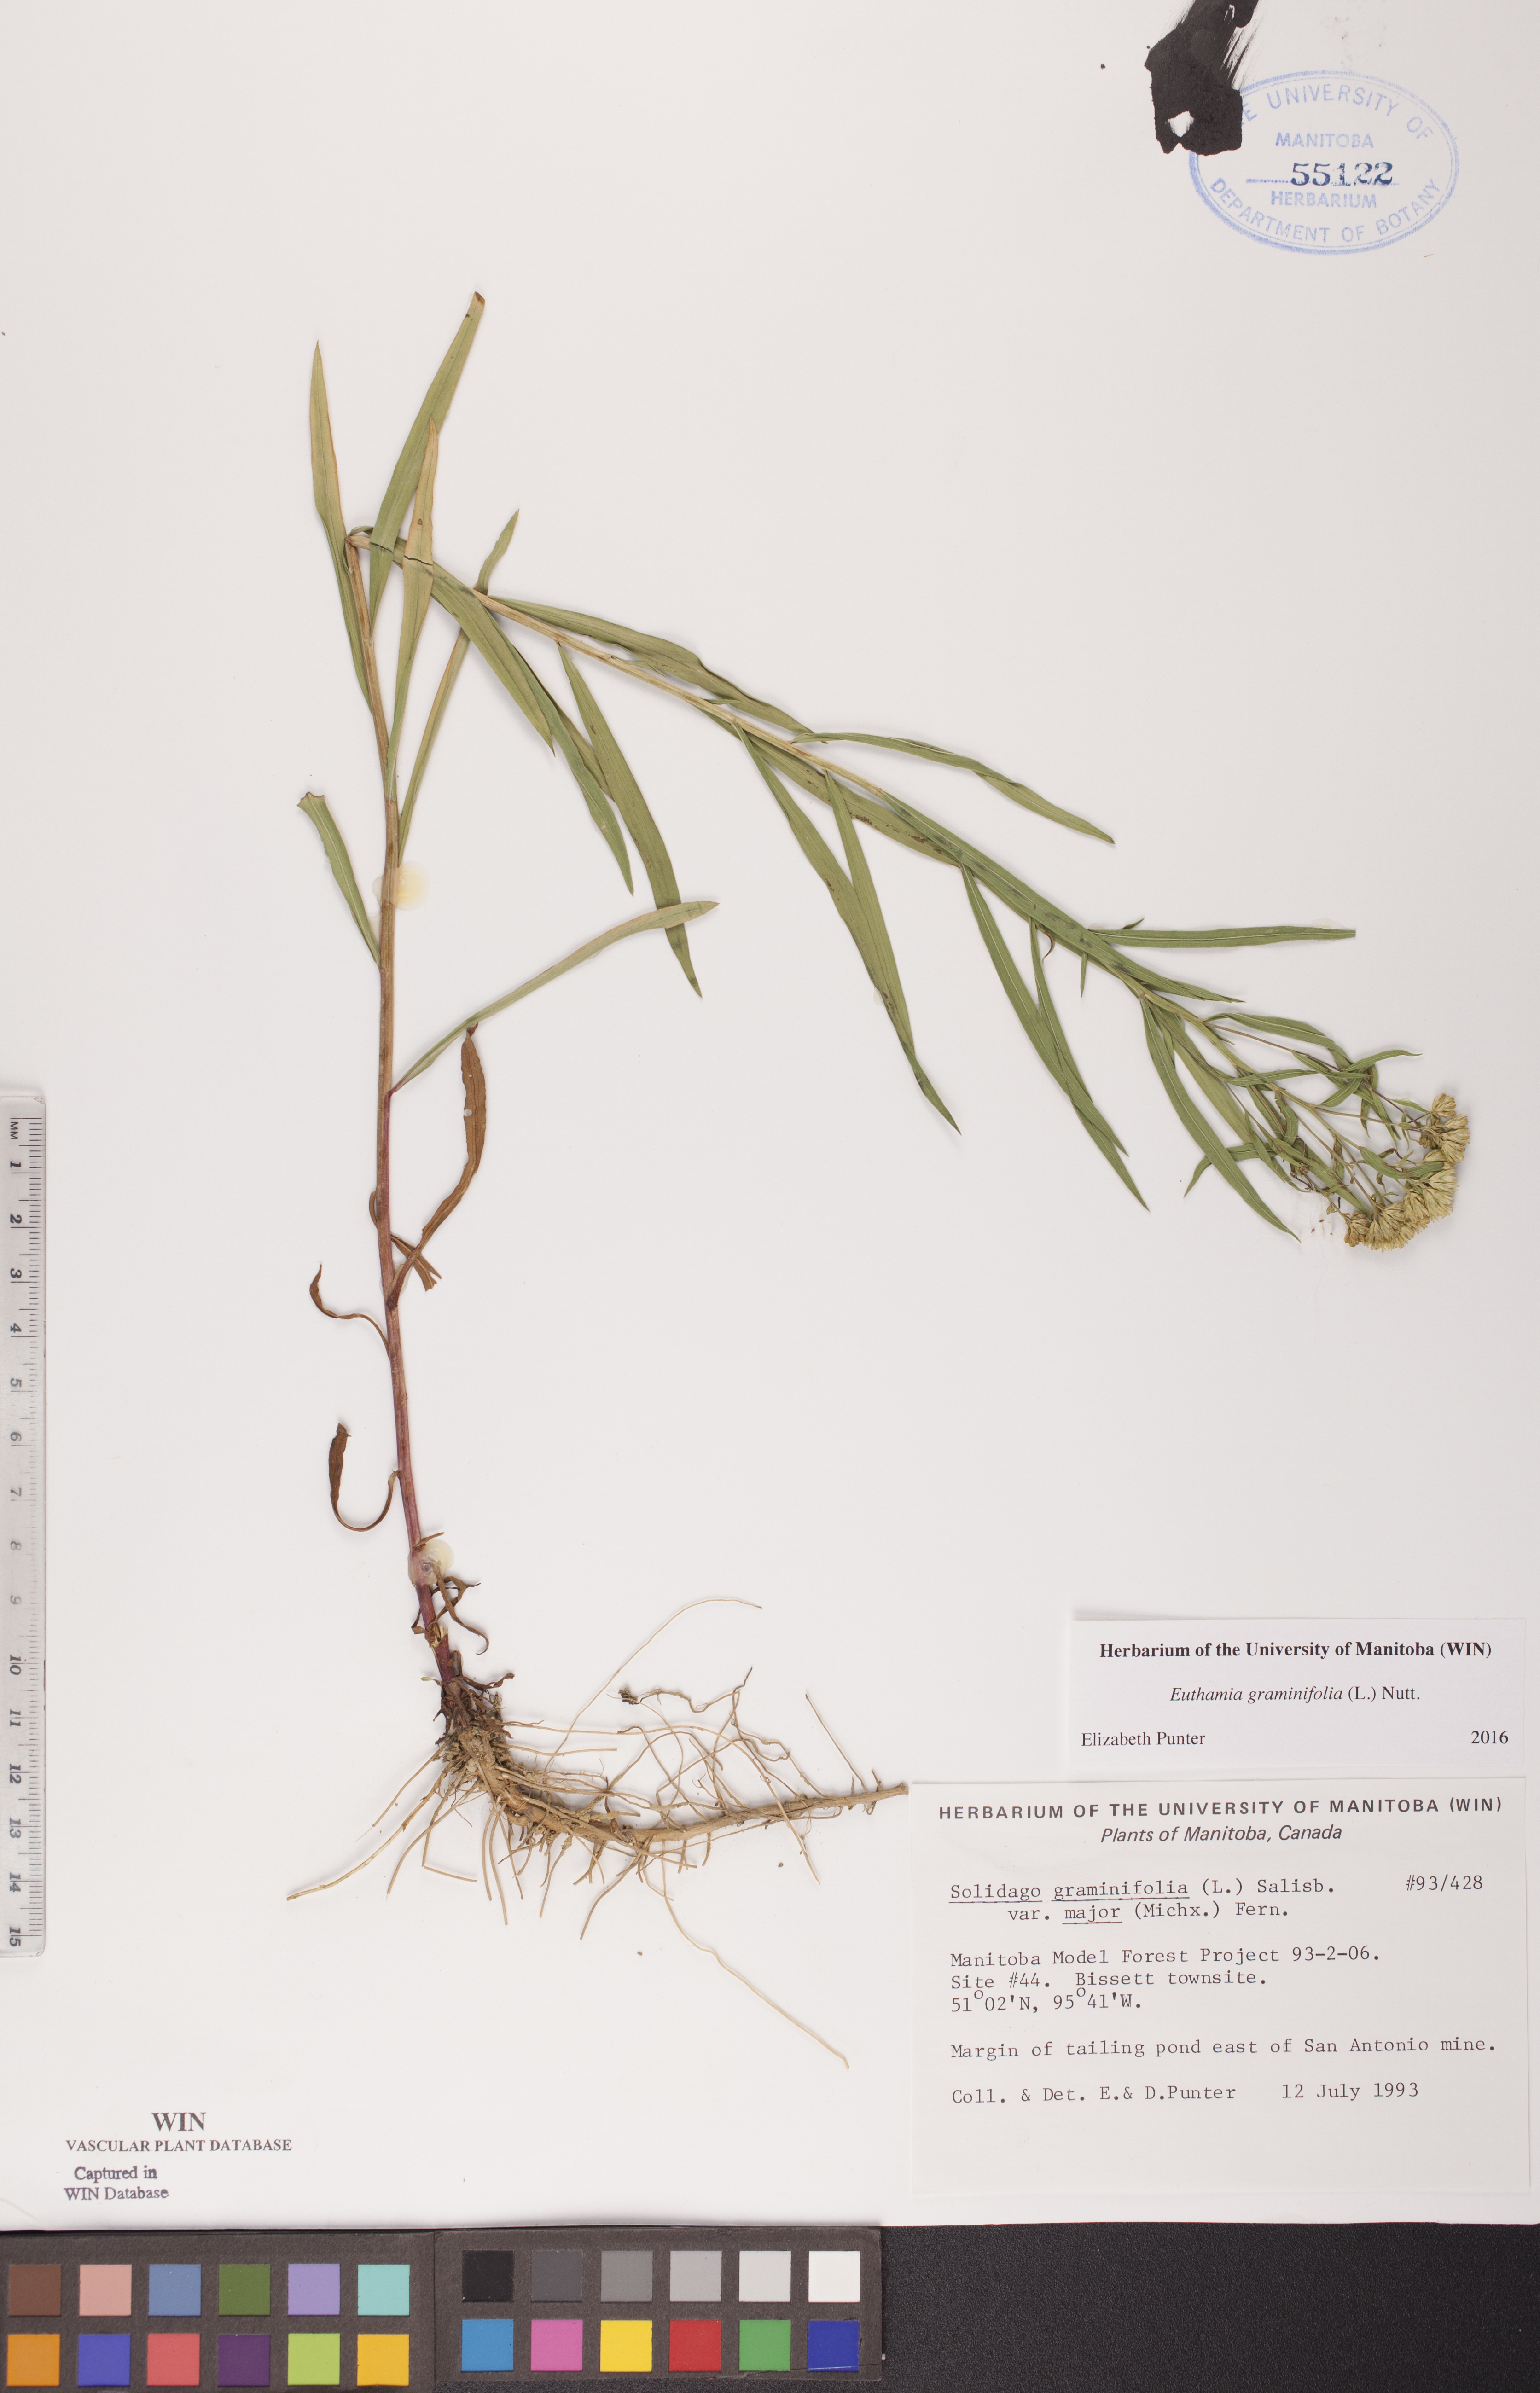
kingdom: Plantae
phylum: Tracheophyta
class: Magnoliopsida
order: Asterales
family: Asteraceae
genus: Euthamia
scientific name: Euthamia graminifolia
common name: Common goldentop
